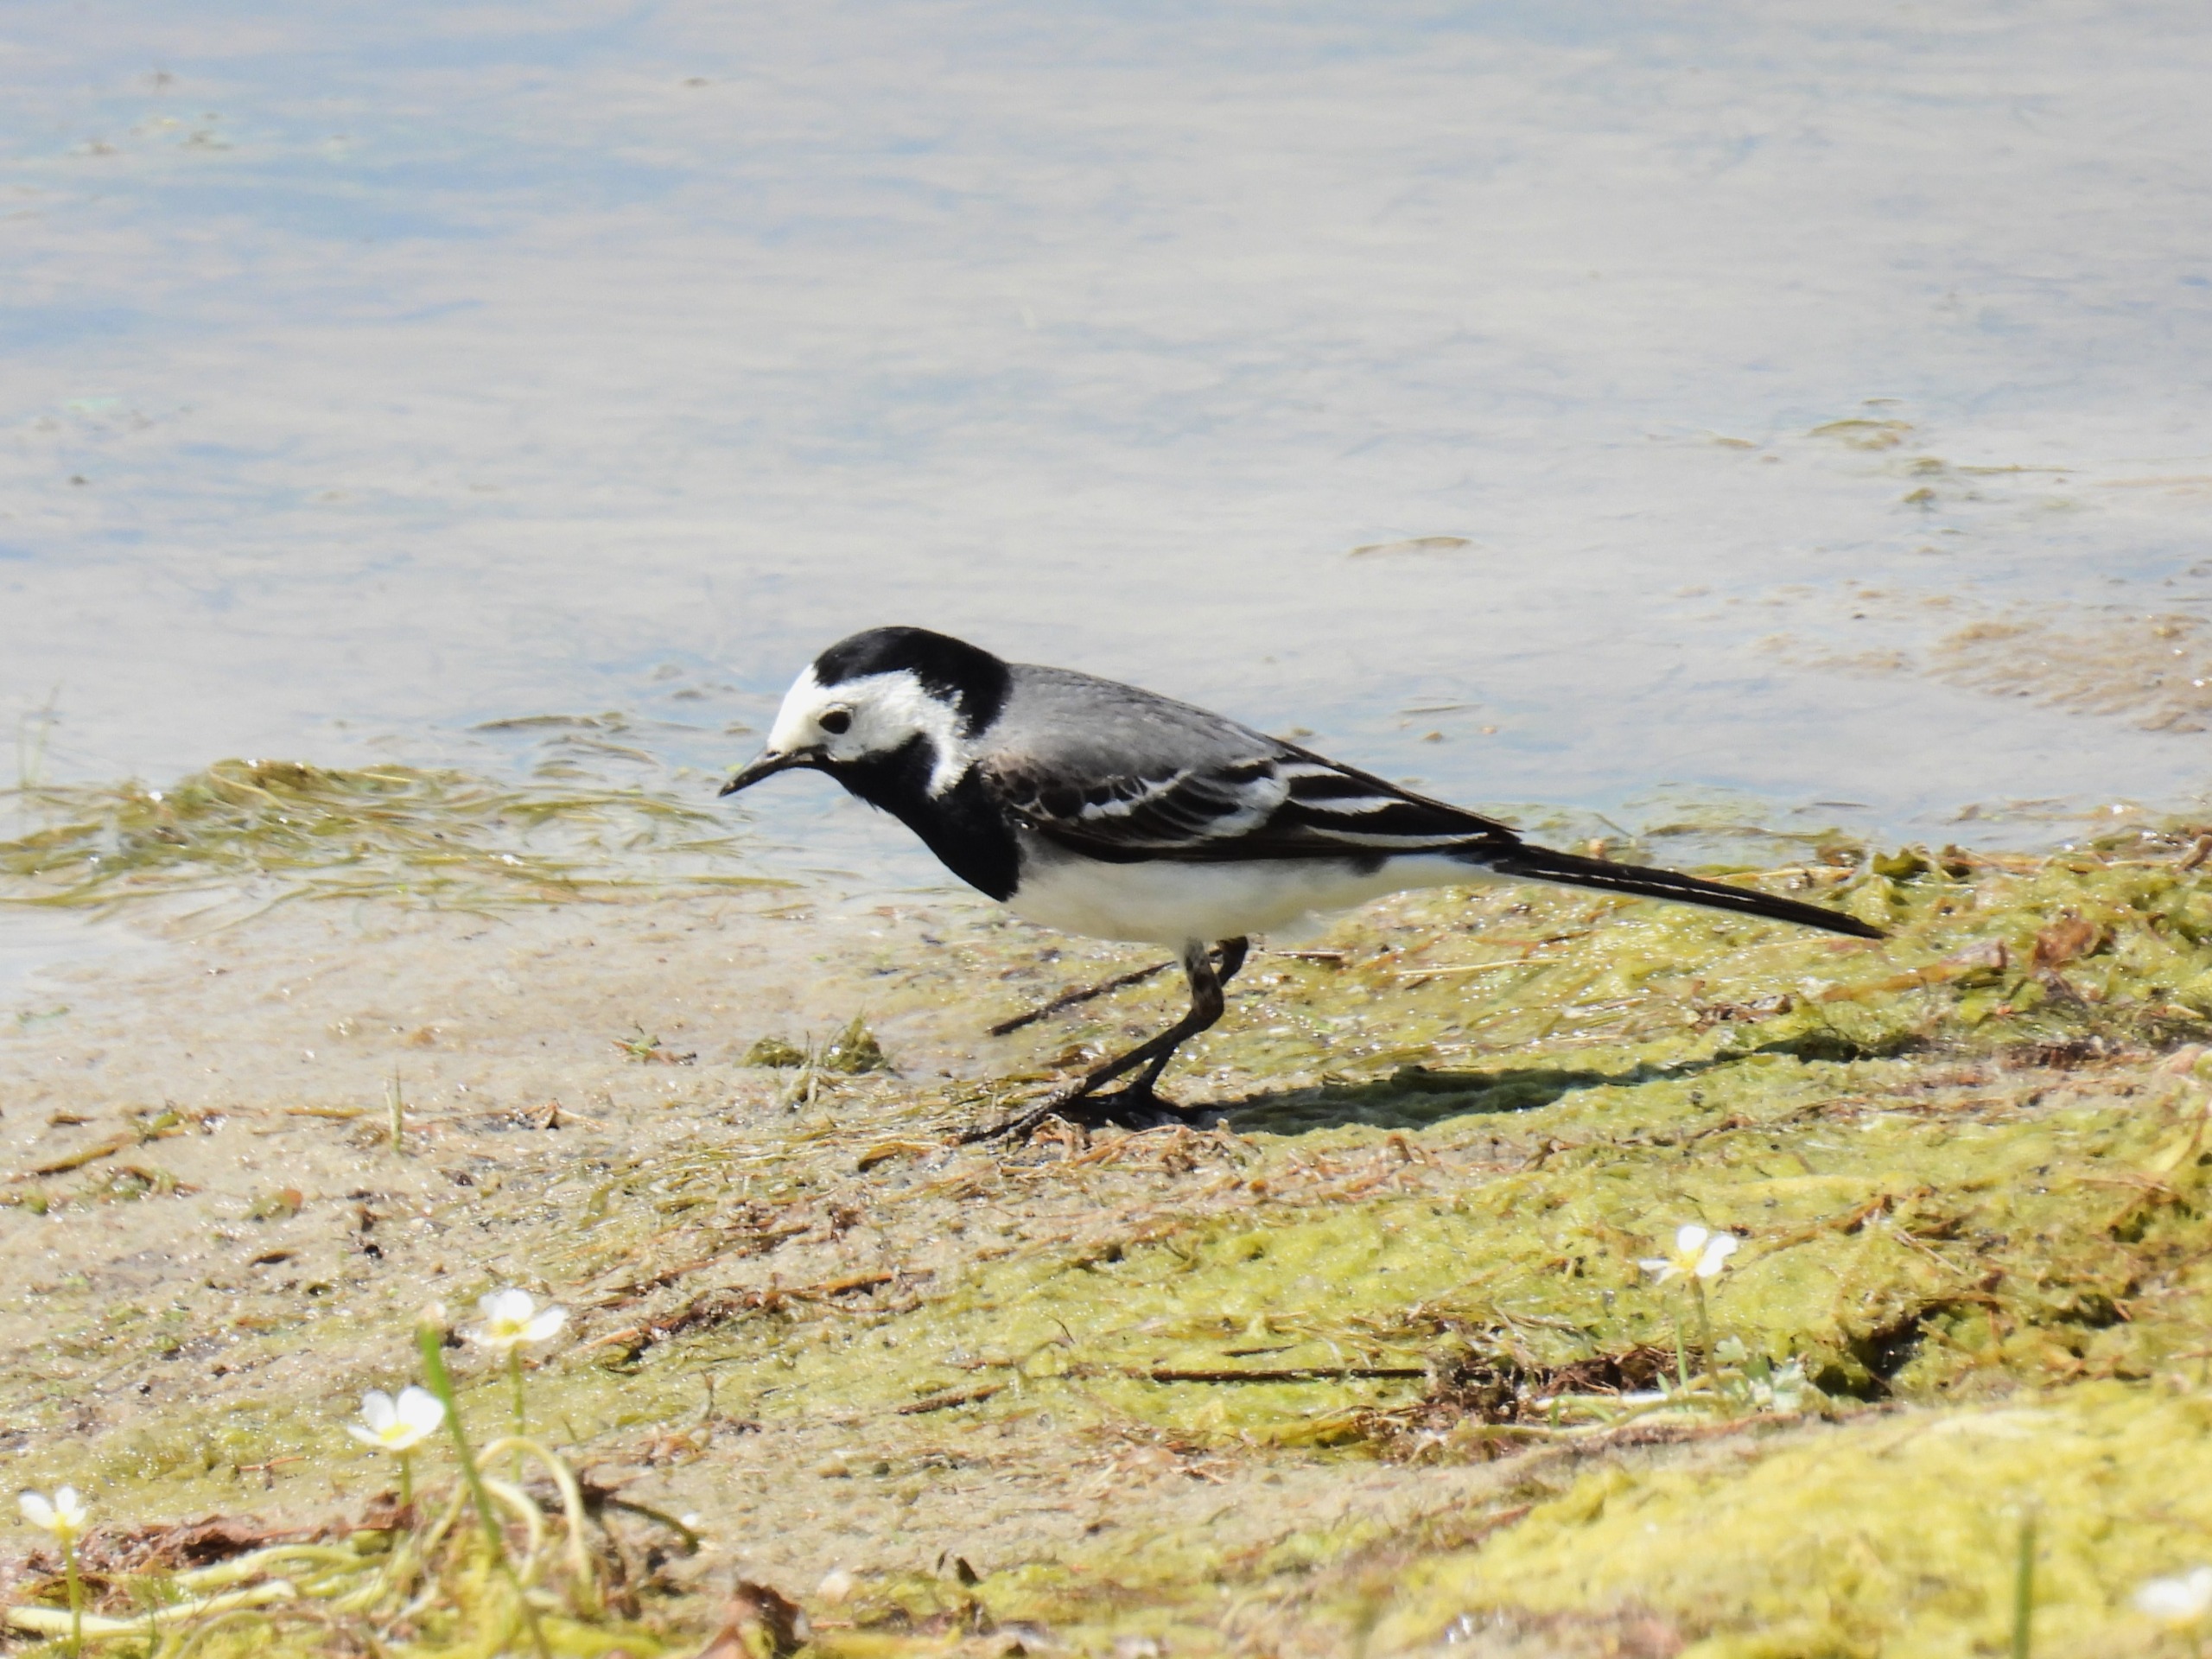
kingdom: Animalia
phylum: Chordata
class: Aves
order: Passeriformes
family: Motacillidae
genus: Motacilla
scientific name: Motacilla alba
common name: Hvid vipstjert
